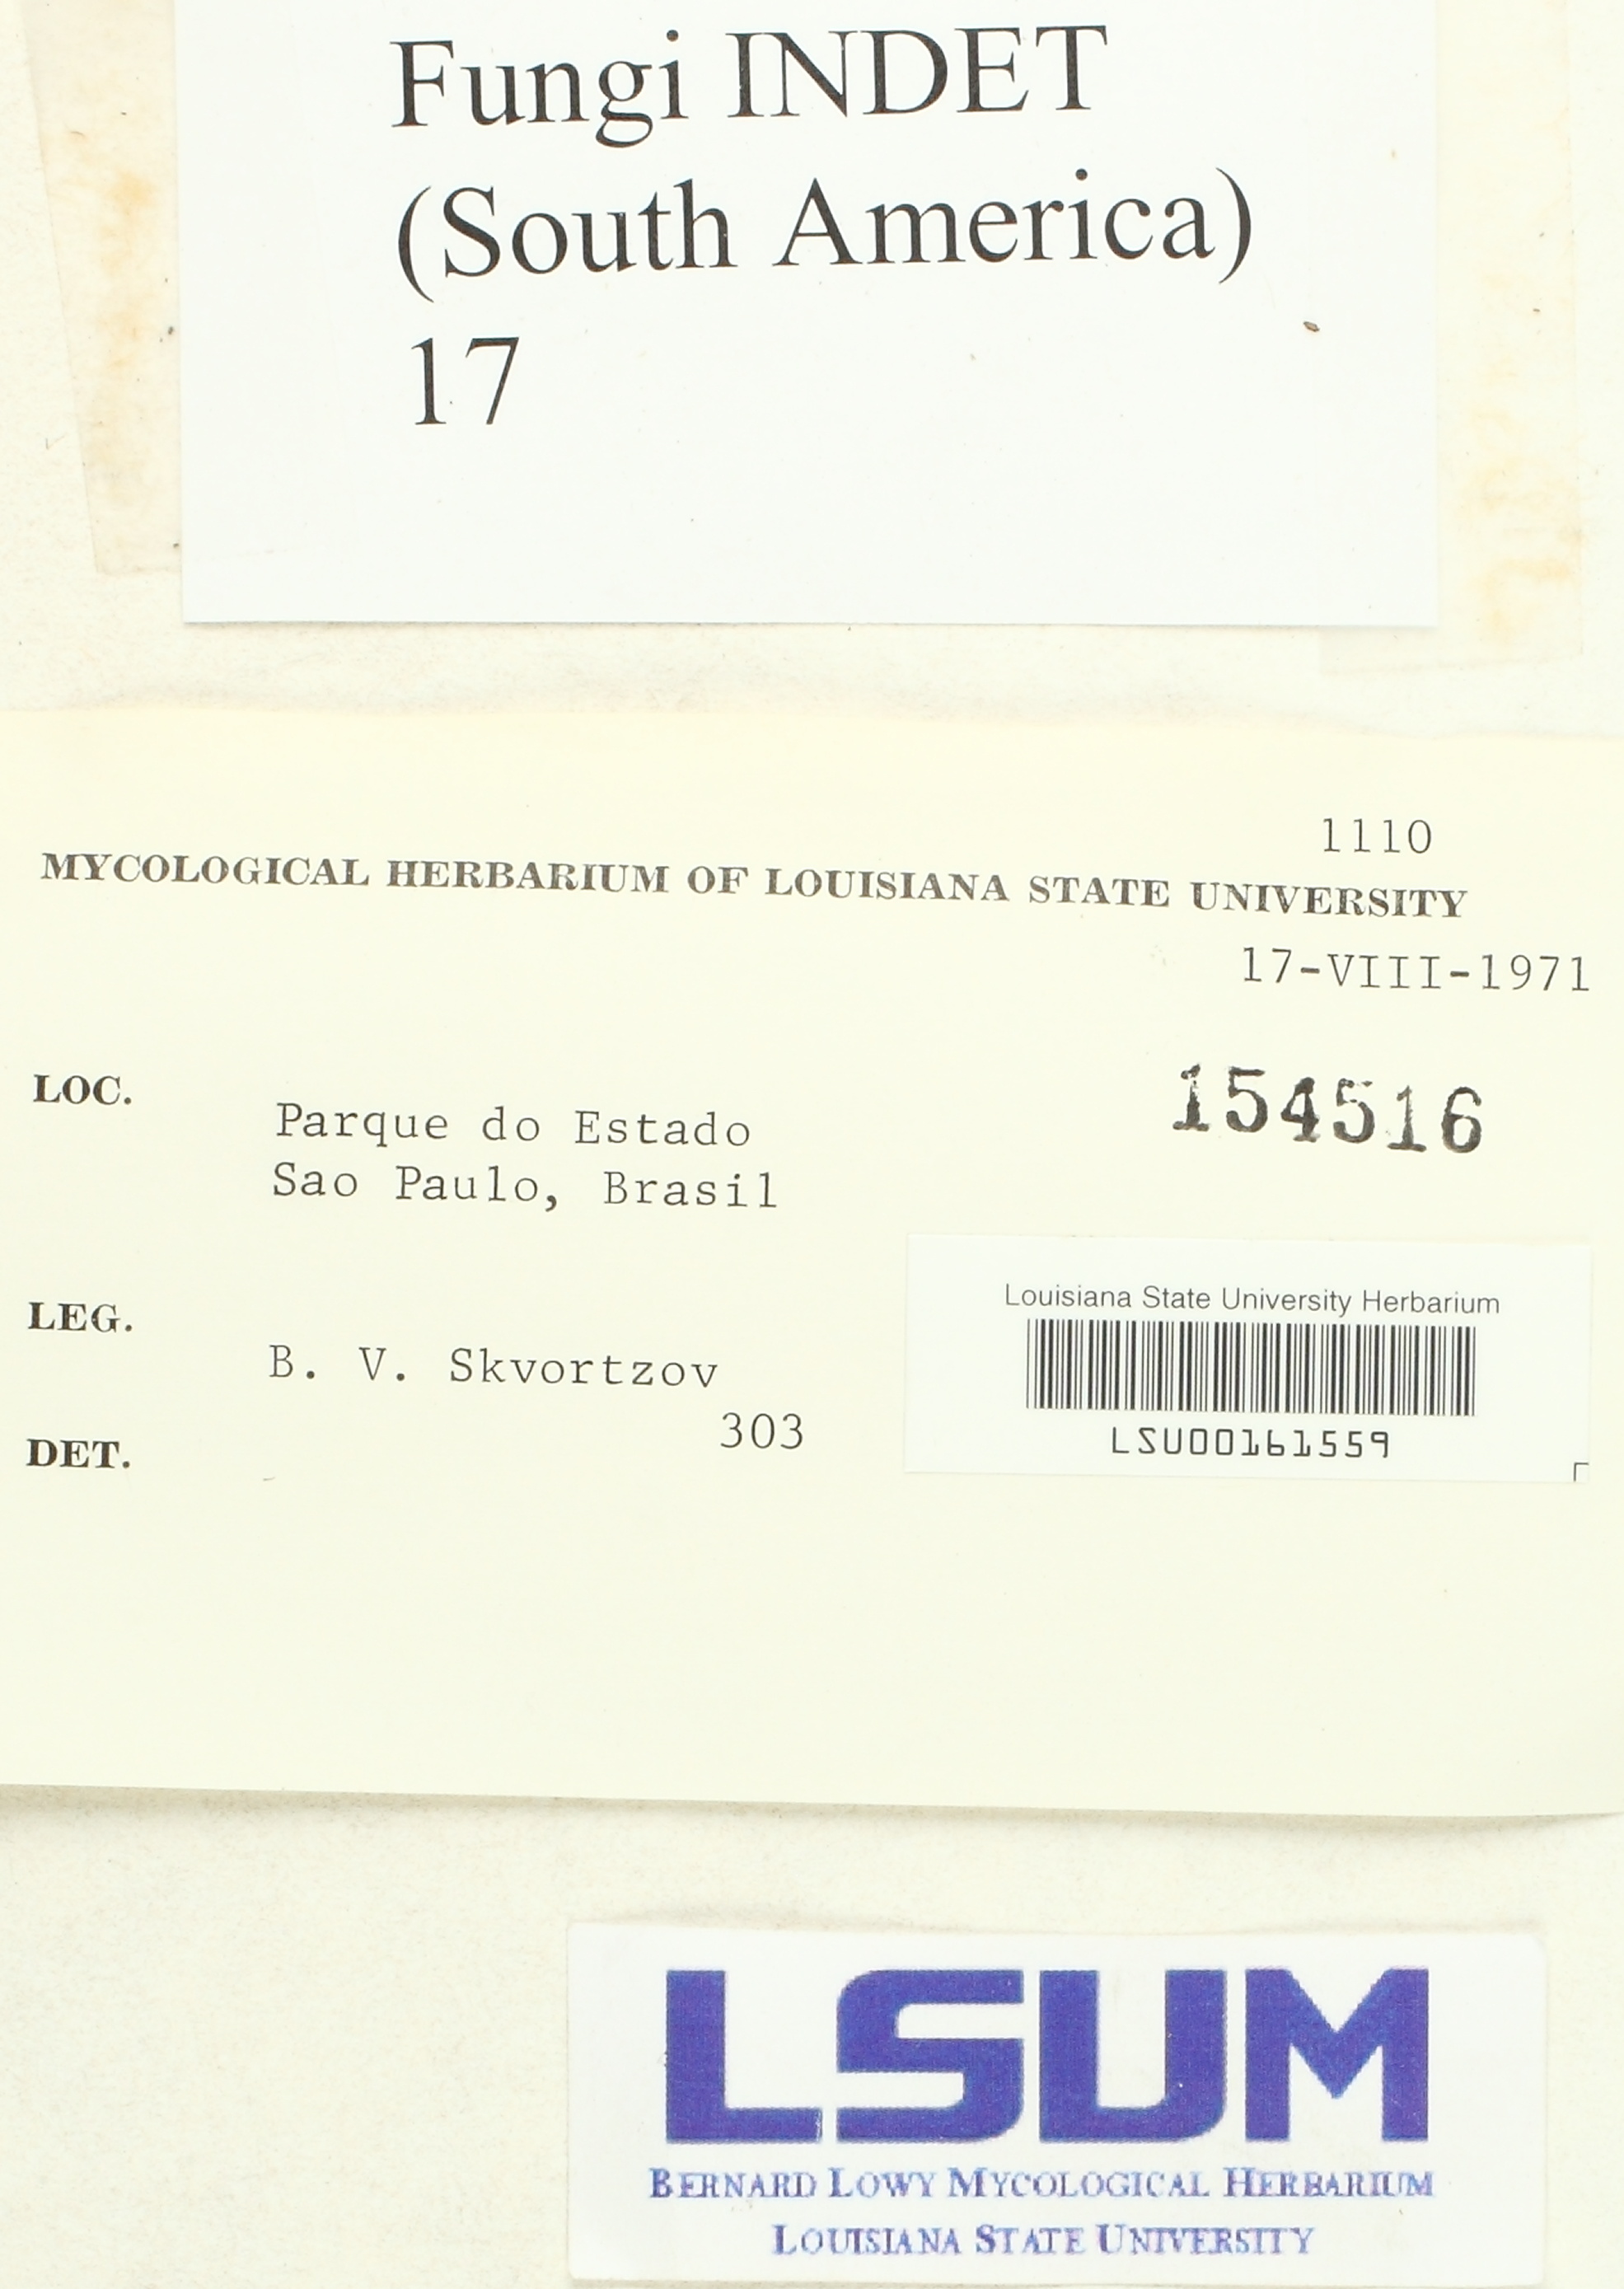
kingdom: Fungi
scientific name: Fungi
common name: Fungi
